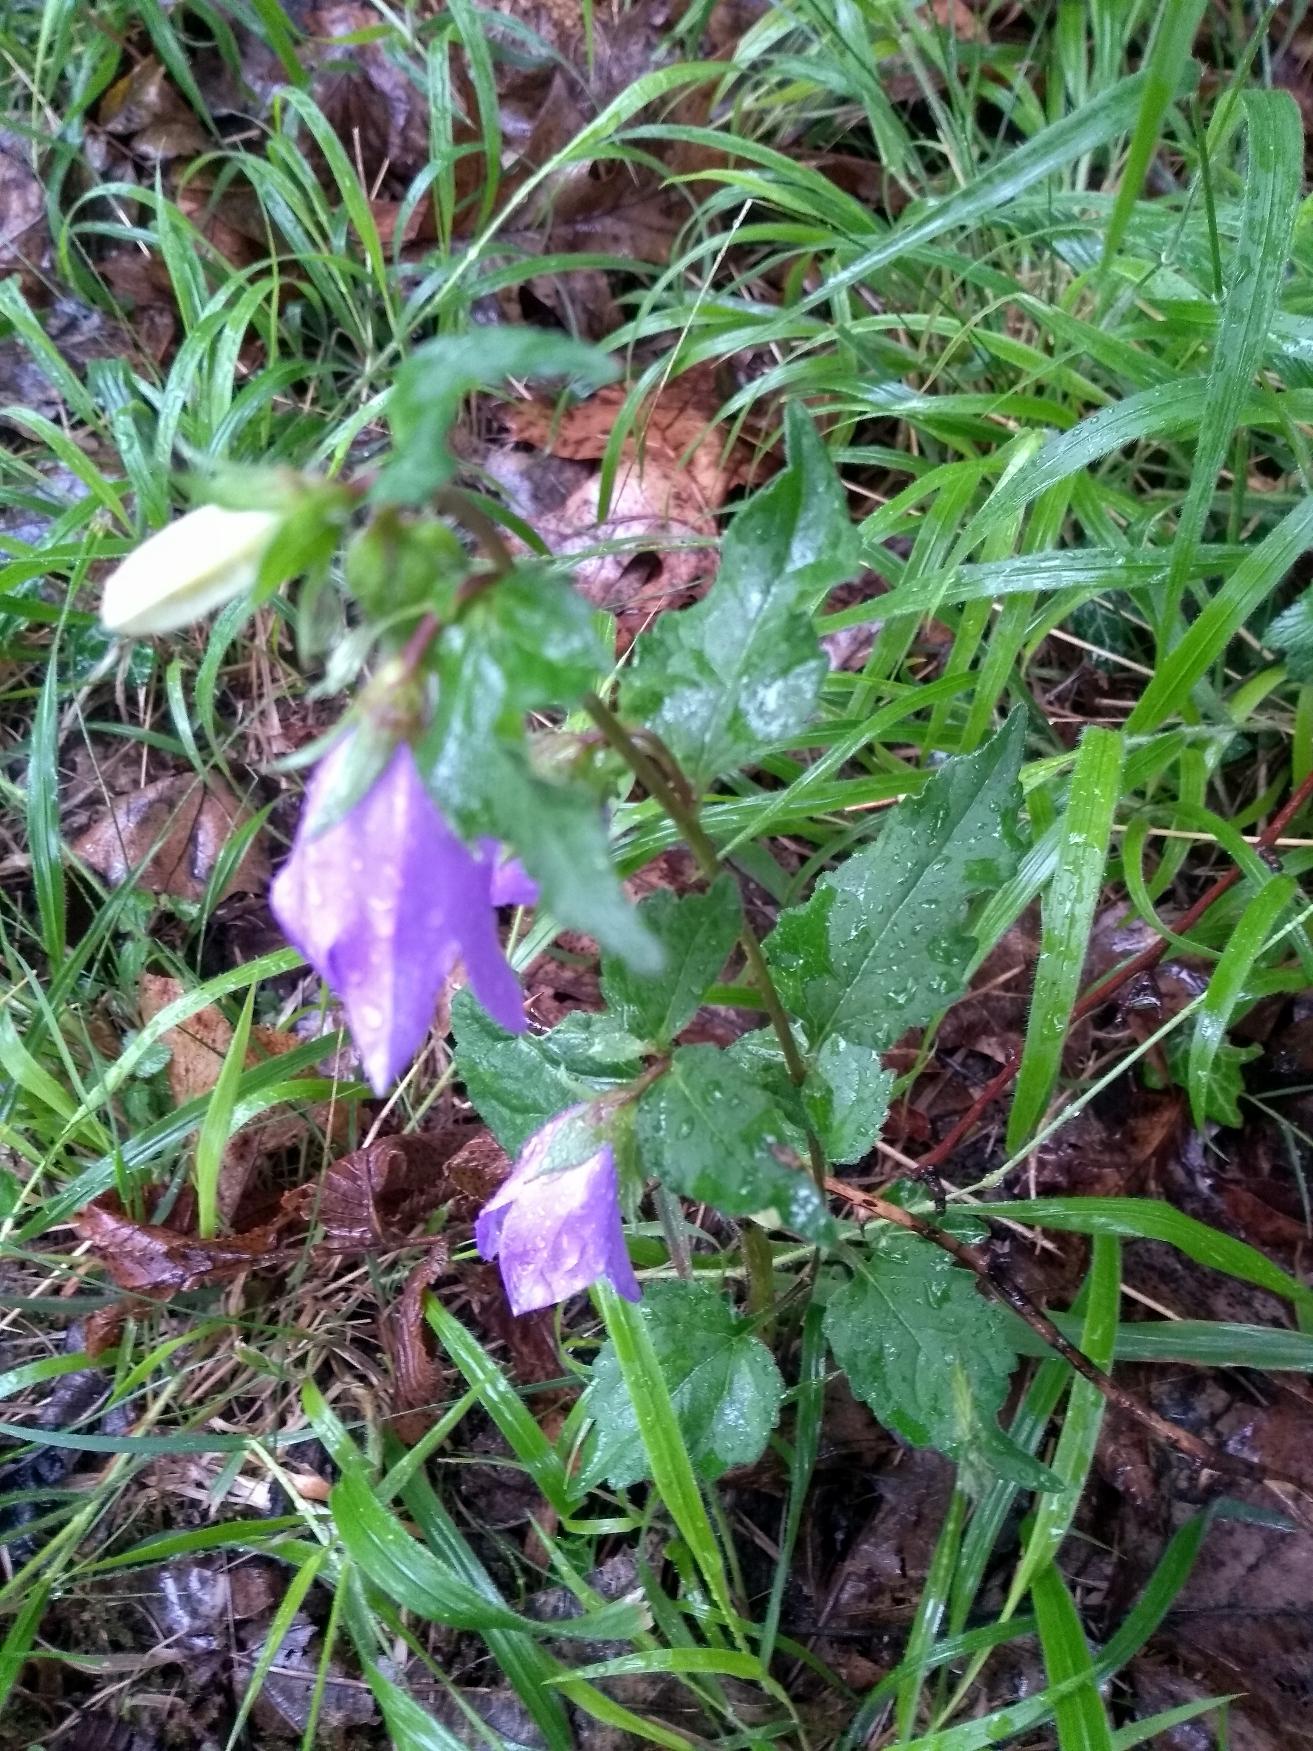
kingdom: Plantae
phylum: Tracheophyta
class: Magnoliopsida
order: Asterales
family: Campanulaceae
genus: Campanula
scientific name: Campanula trachelium
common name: Nælde-klokke
